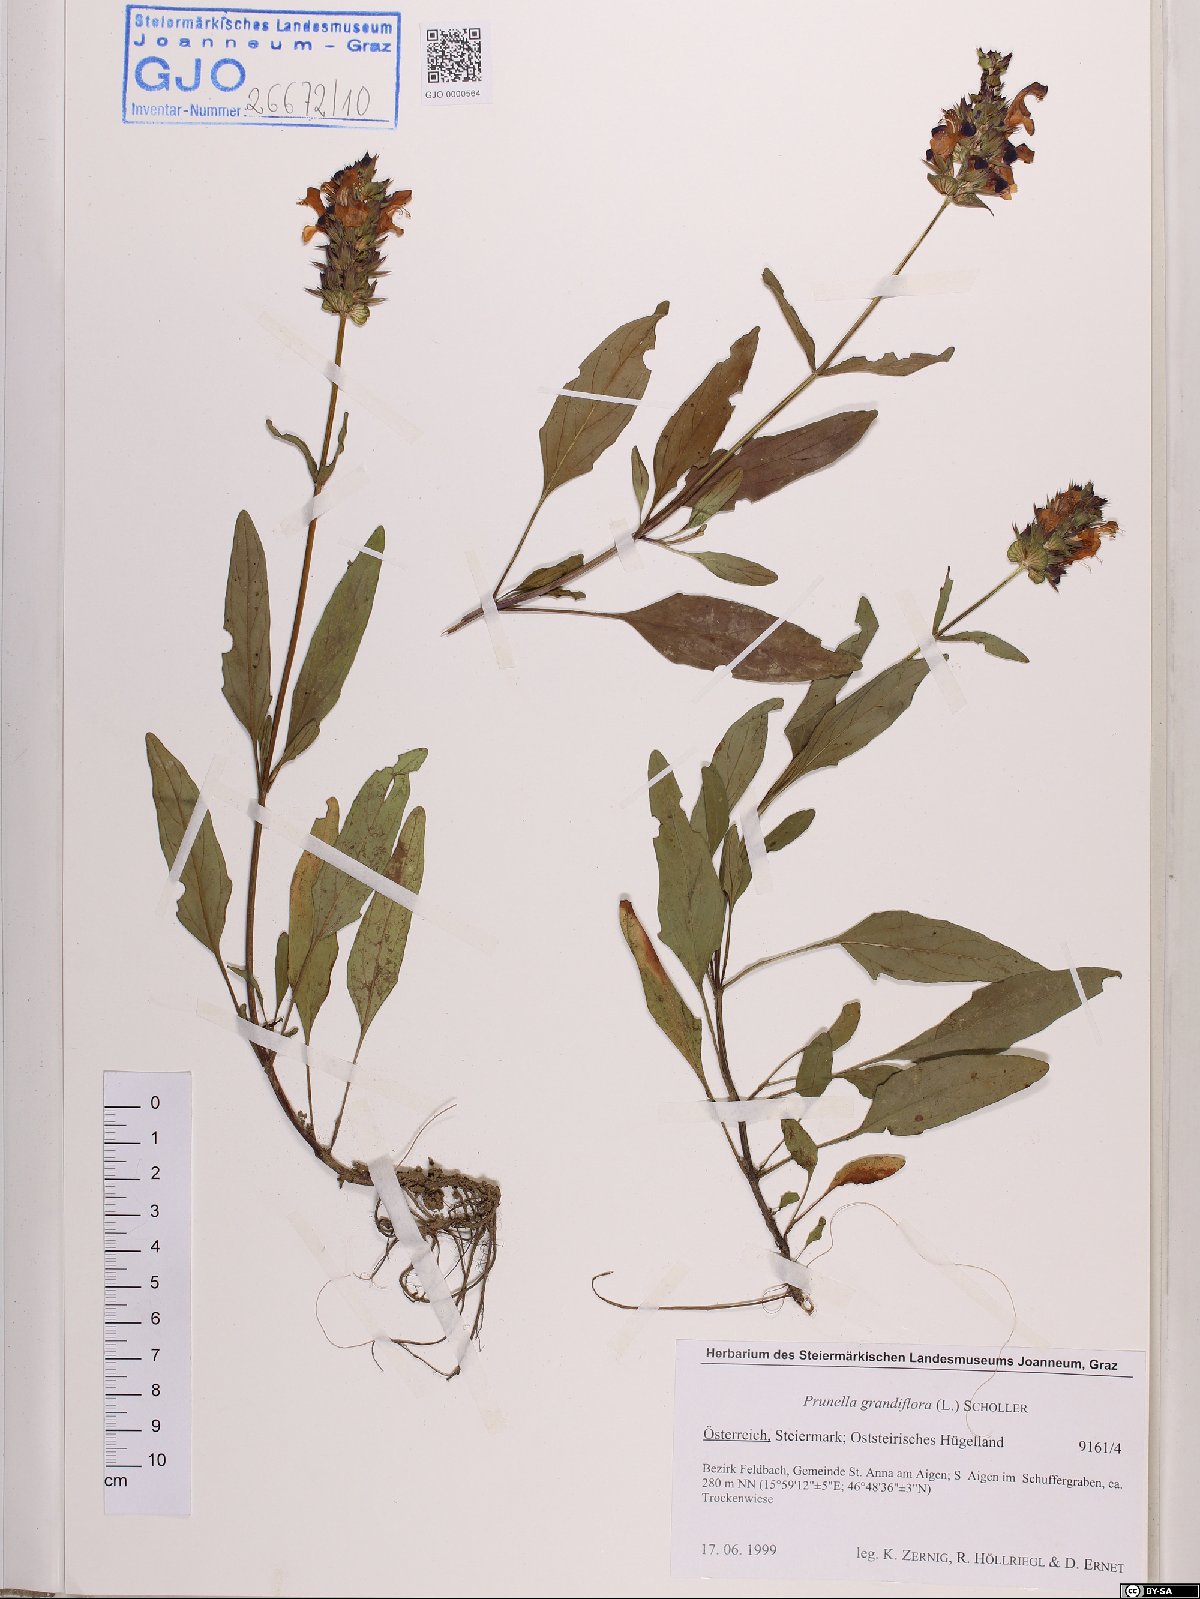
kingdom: Plantae
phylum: Tracheophyta
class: Magnoliopsida
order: Lamiales
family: Lamiaceae
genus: Prunella
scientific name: Prunella grandiflora
